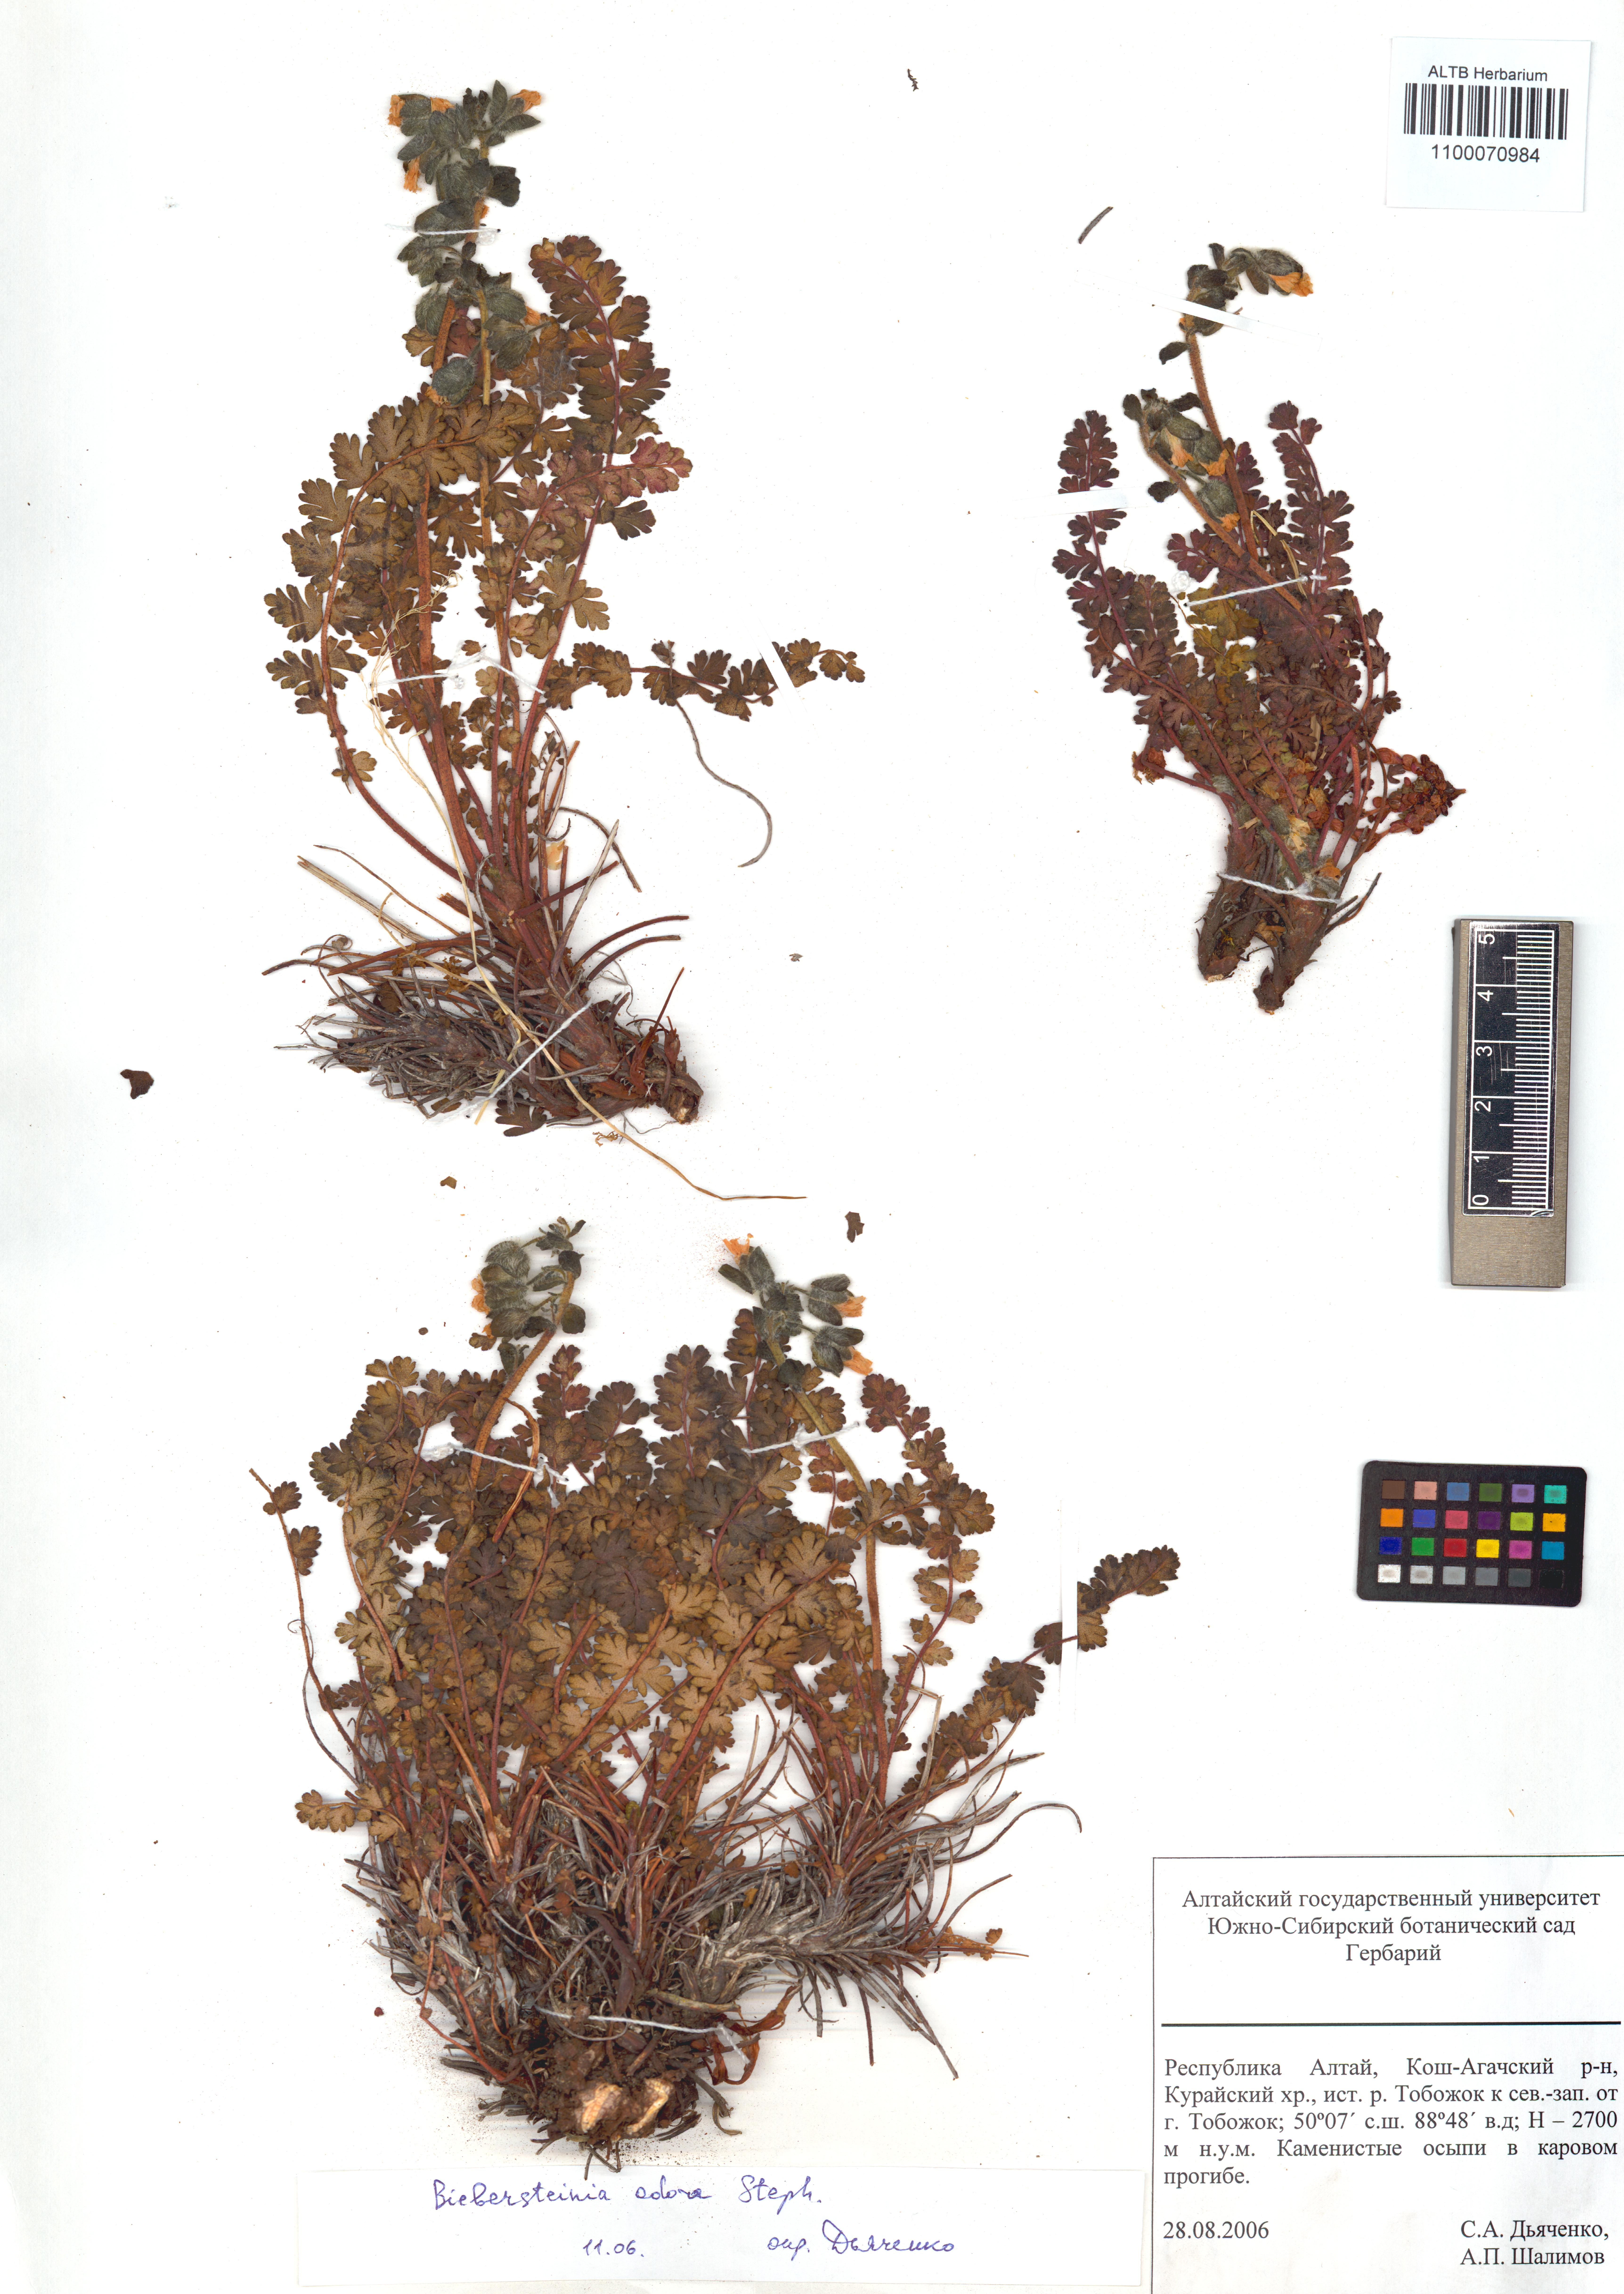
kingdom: Plantae
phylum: Tracheophyta
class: Magnoliopsida
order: Sapindales
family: Biebersteiniaceae
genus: Biebersteinia
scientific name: Biebersteinia odora
